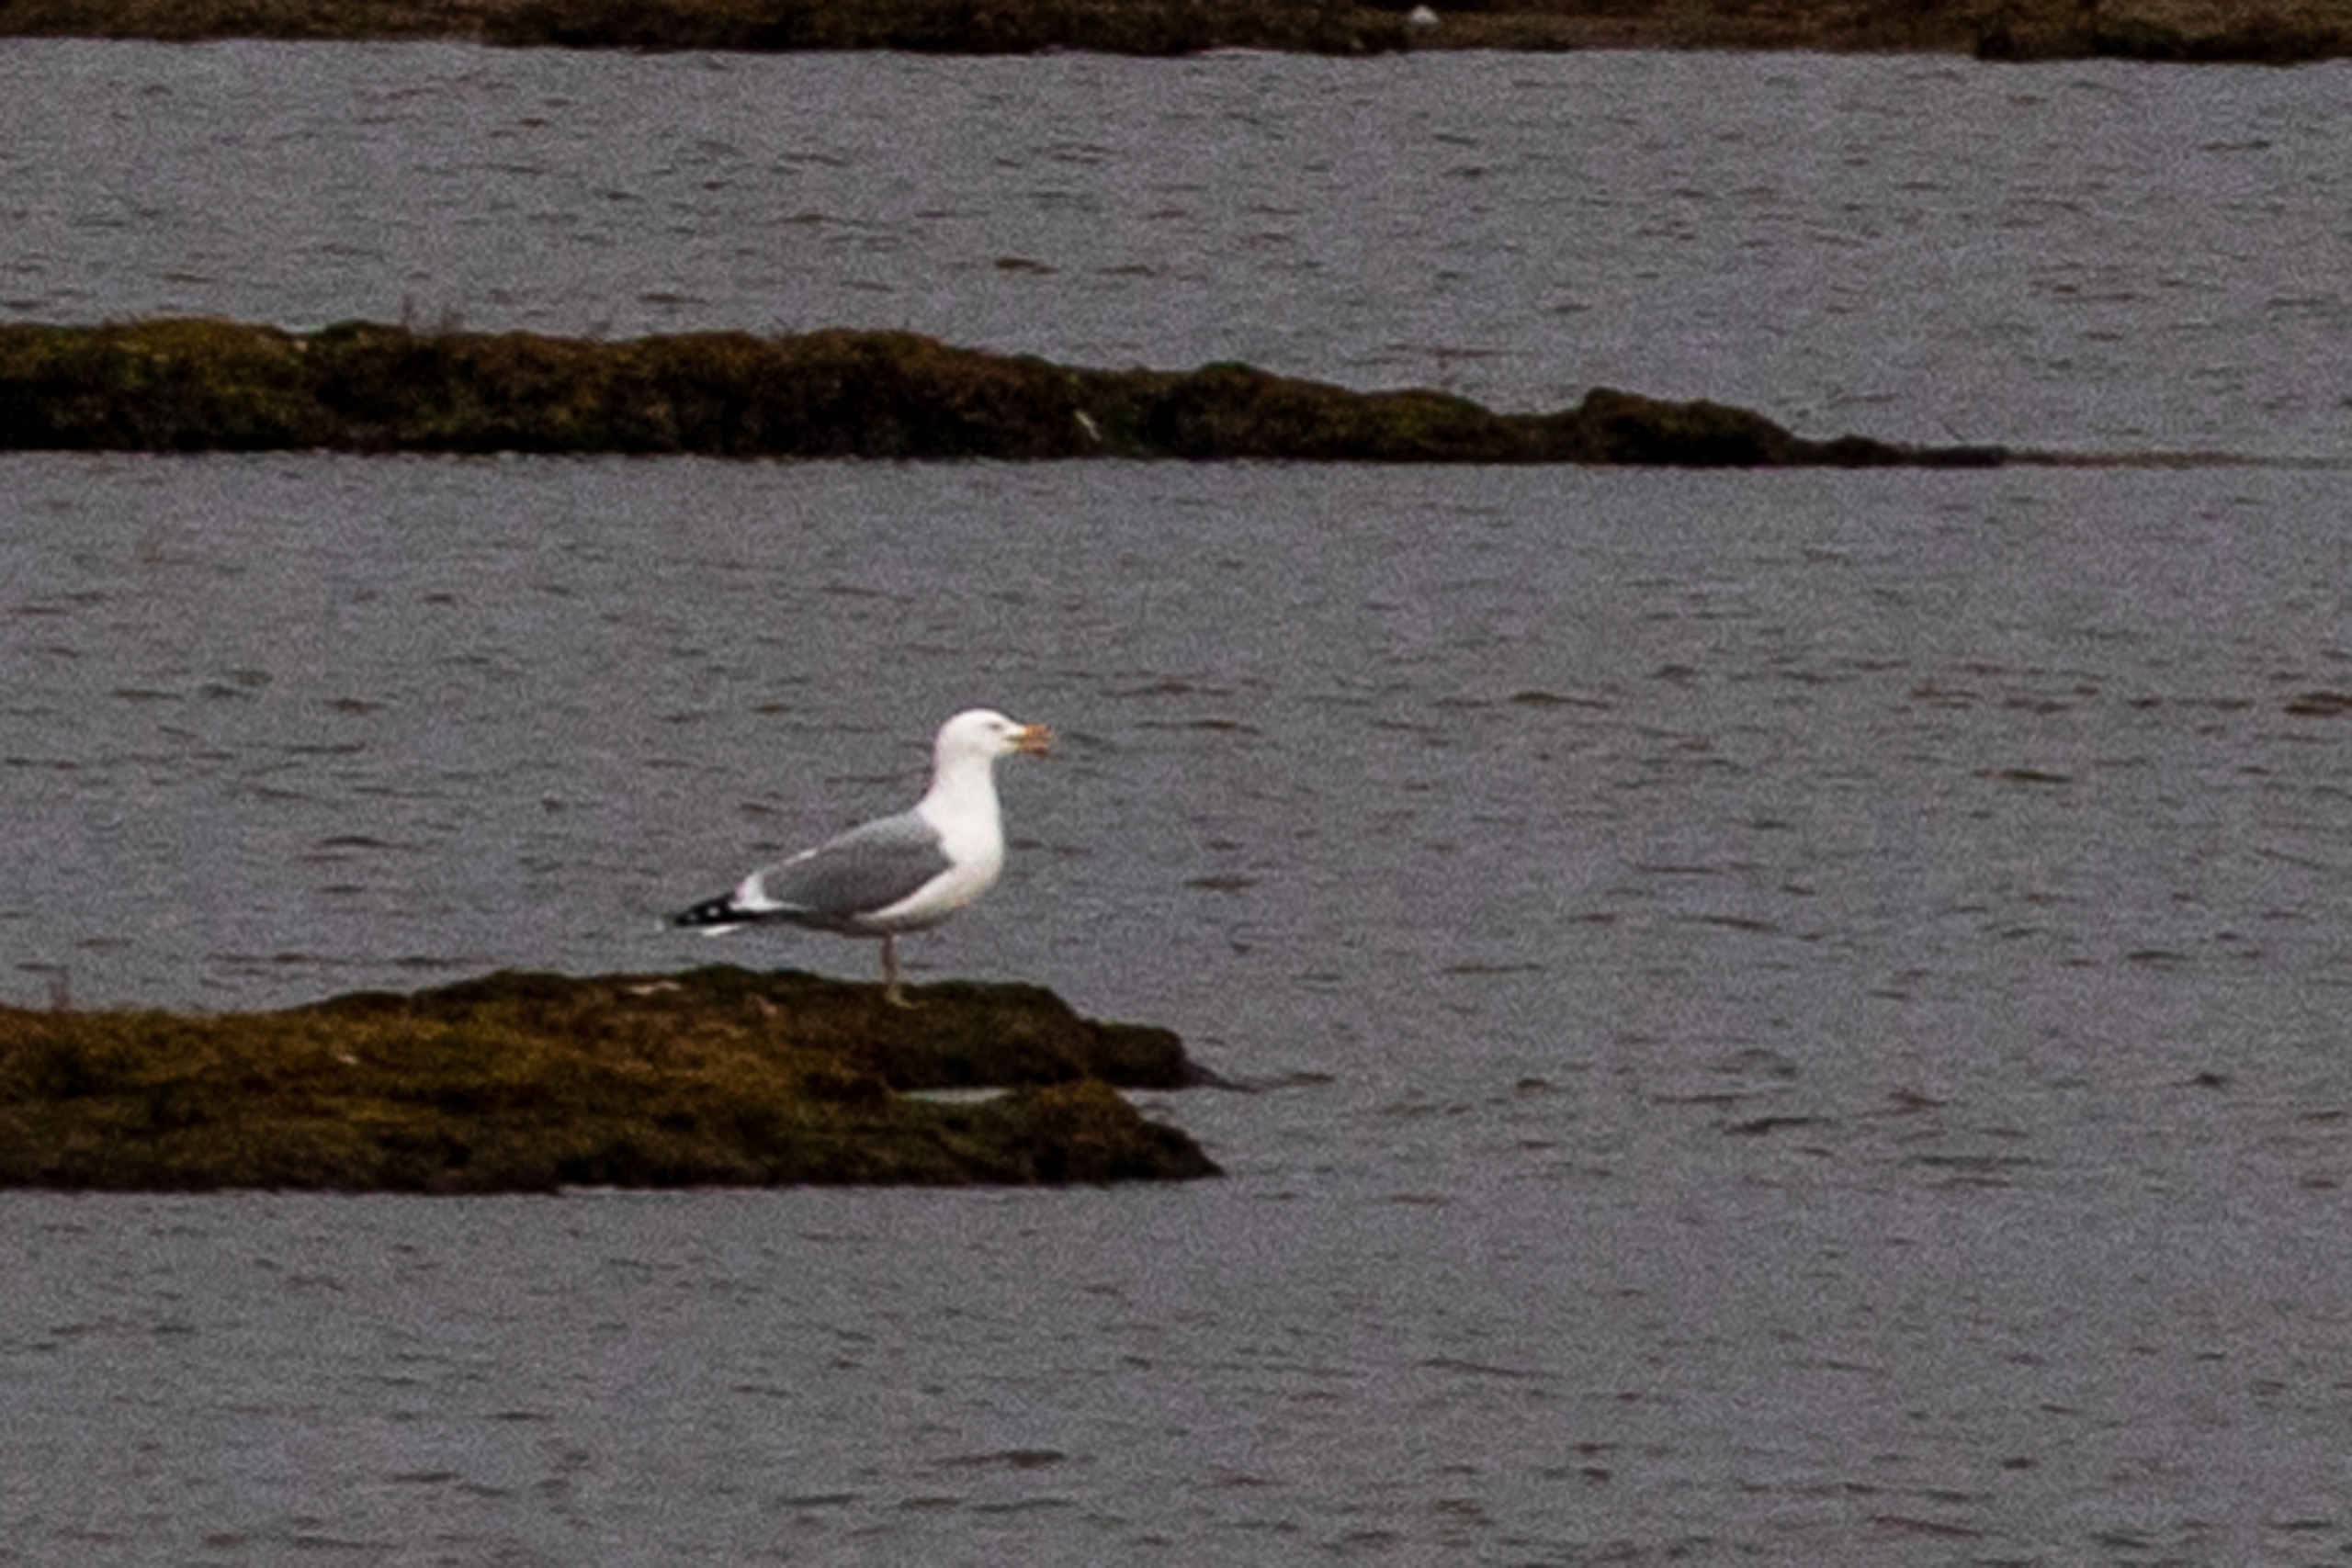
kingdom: Animalia
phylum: Chordata
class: Aves
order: Charadriiformes
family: Laridae
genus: Larus
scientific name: Larus argentatus
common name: Sølvmåge
